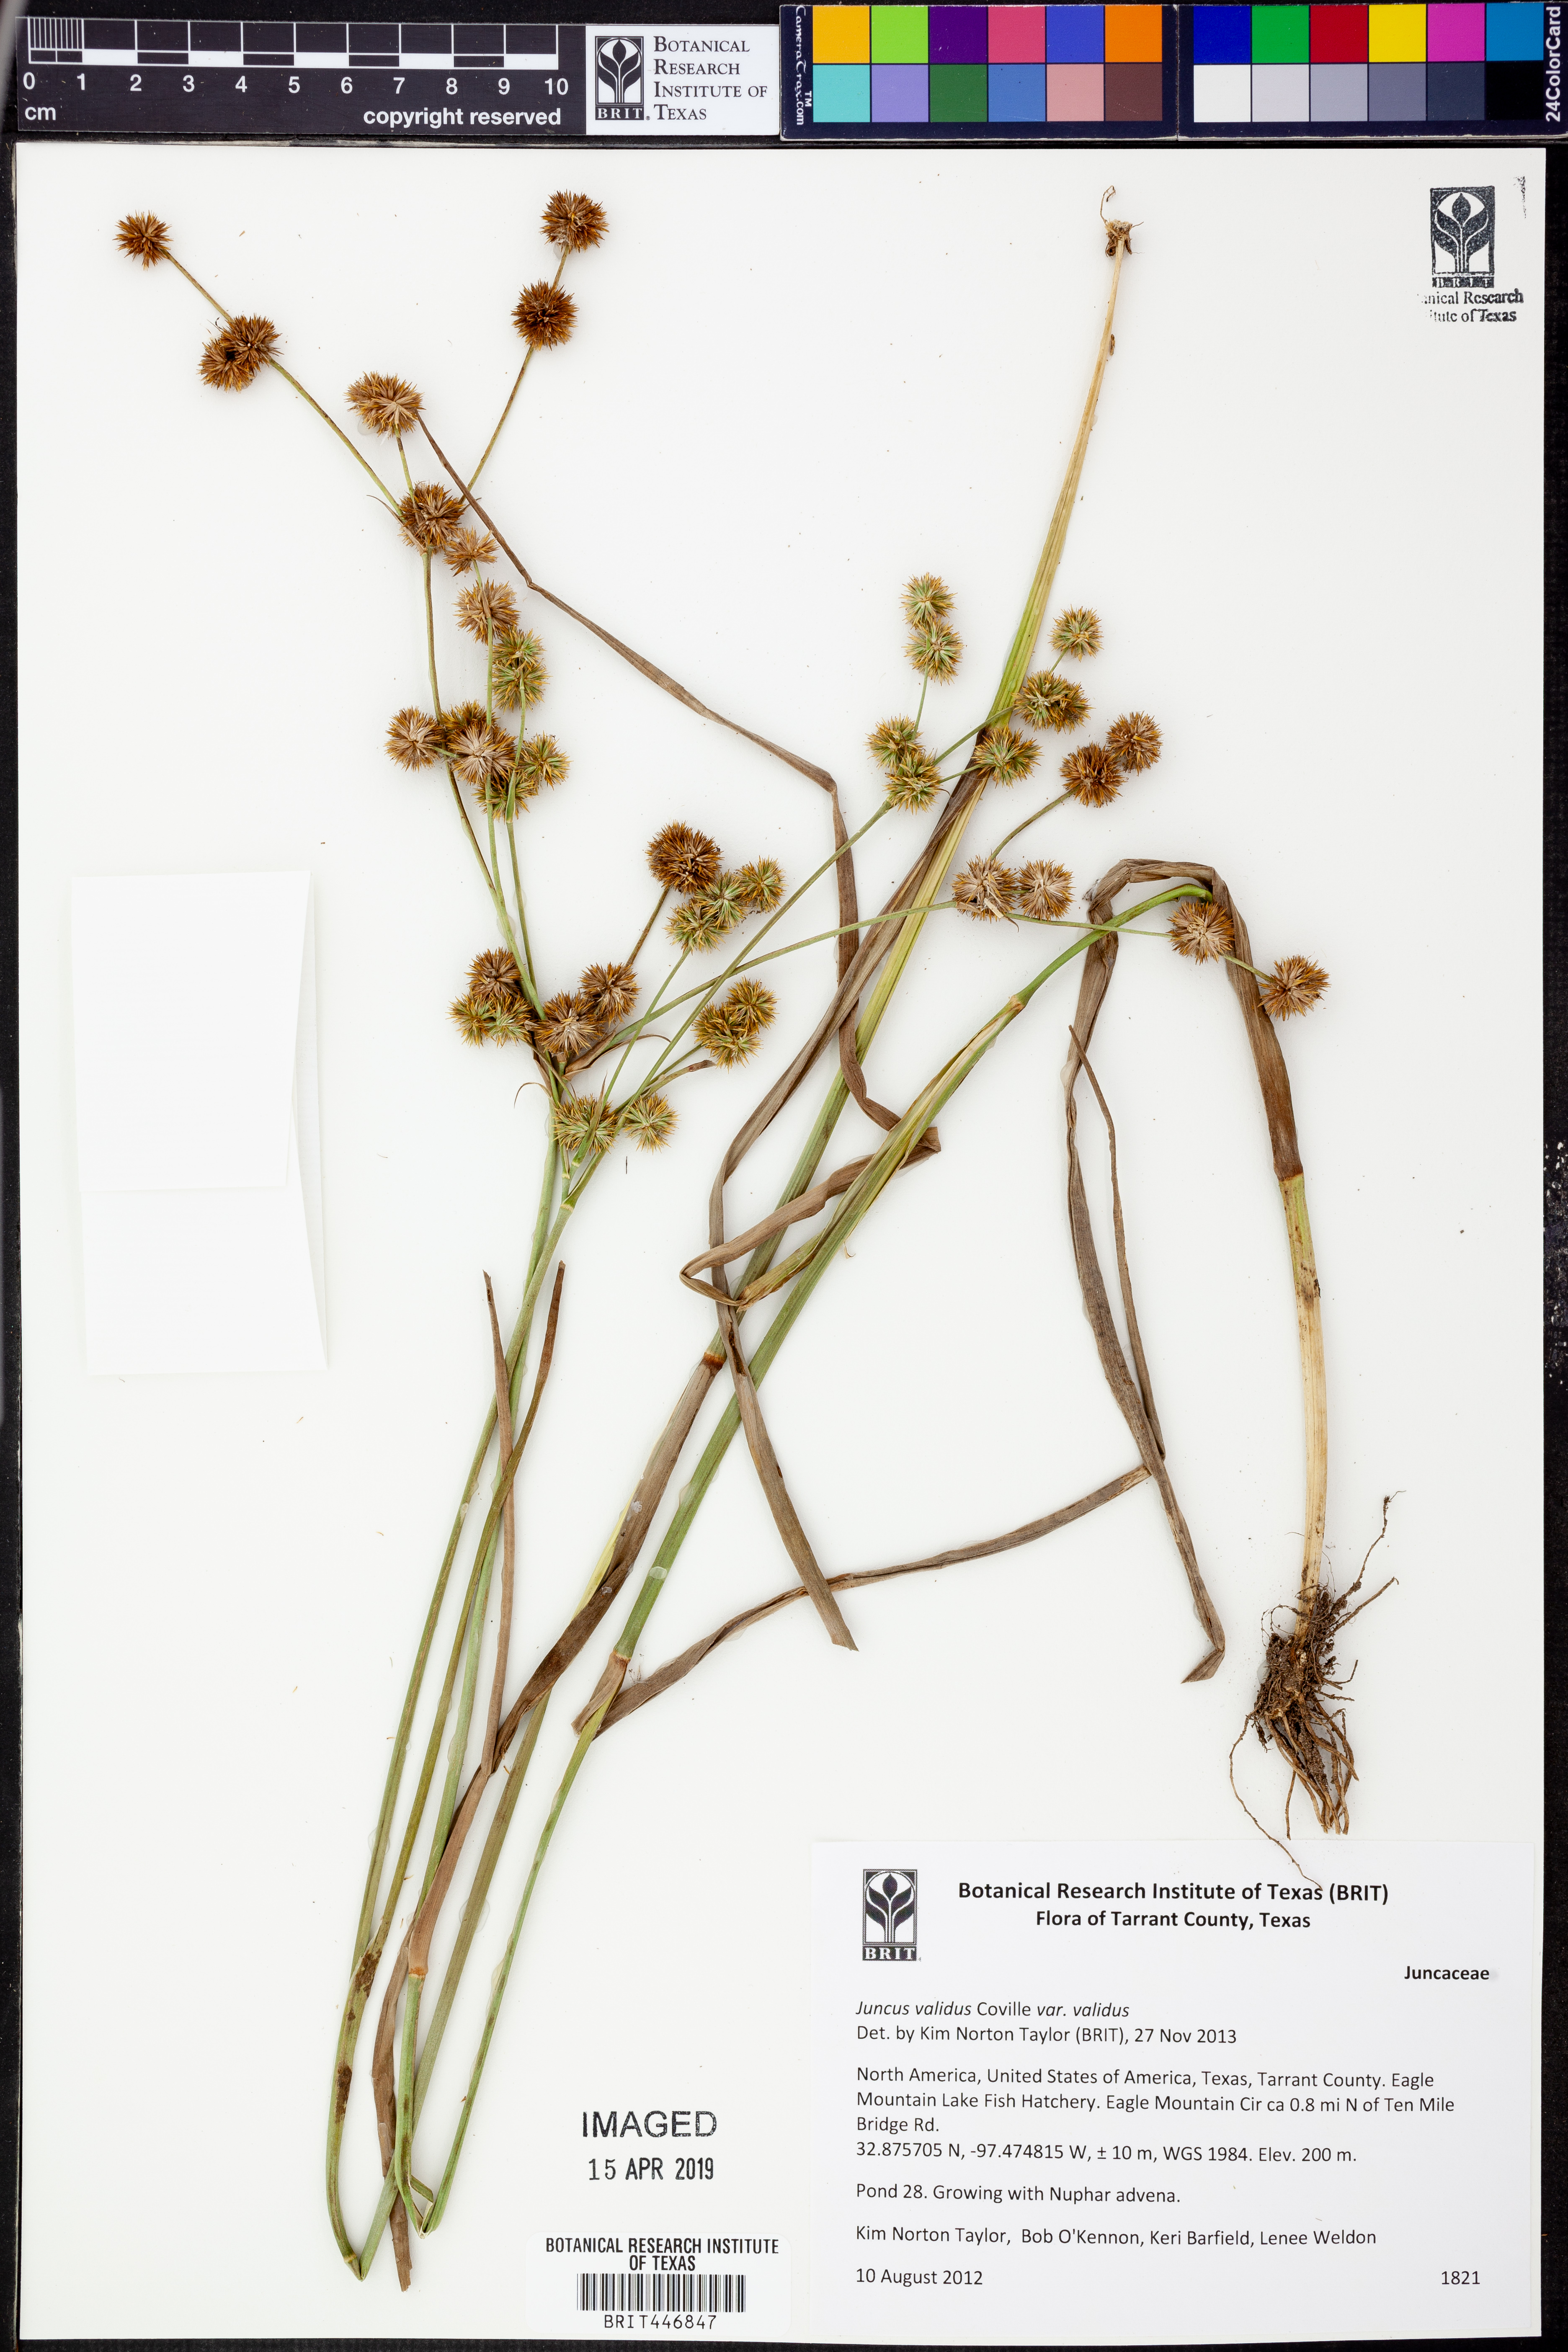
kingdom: Plantae
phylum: Tracheophyta
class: Liliopsida
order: Poales
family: Juncaceae
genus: Juncus
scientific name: Juncus validus
